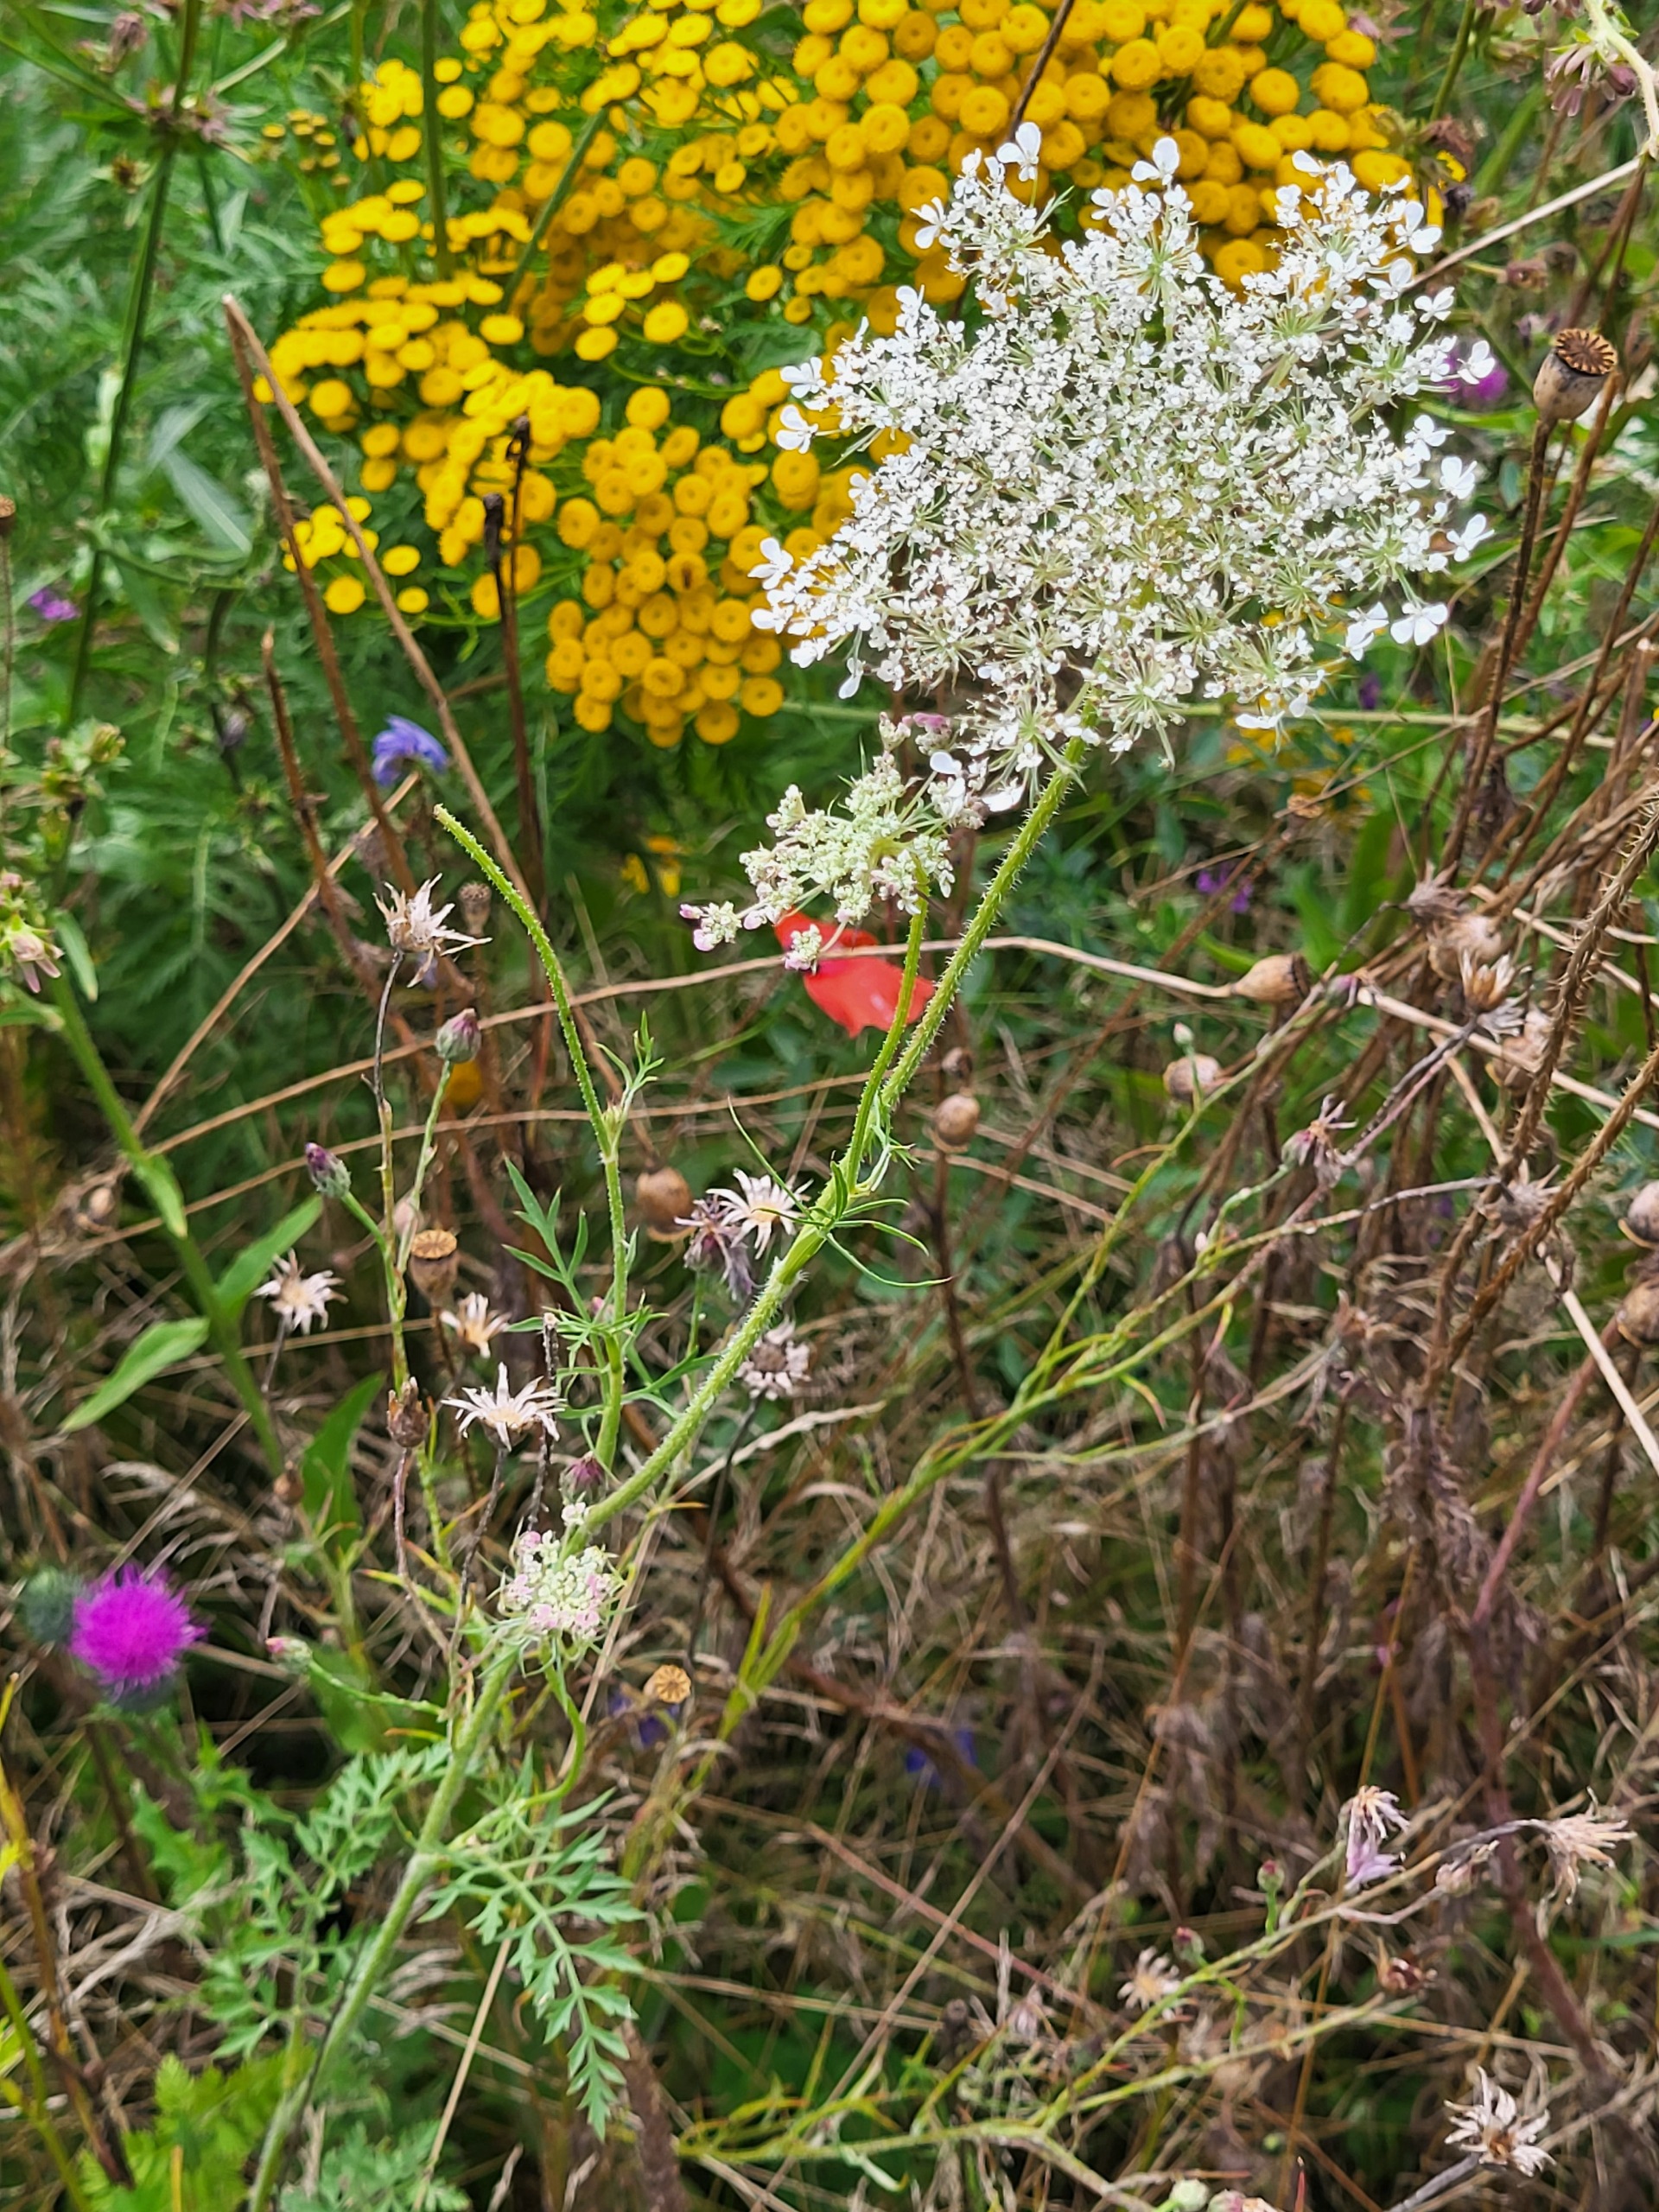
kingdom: Plantae
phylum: Tracheophyta
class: Magnoliopsida
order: Apiales
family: Apiaceae
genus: Daucus
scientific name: Daucus carota
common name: Gulerod
